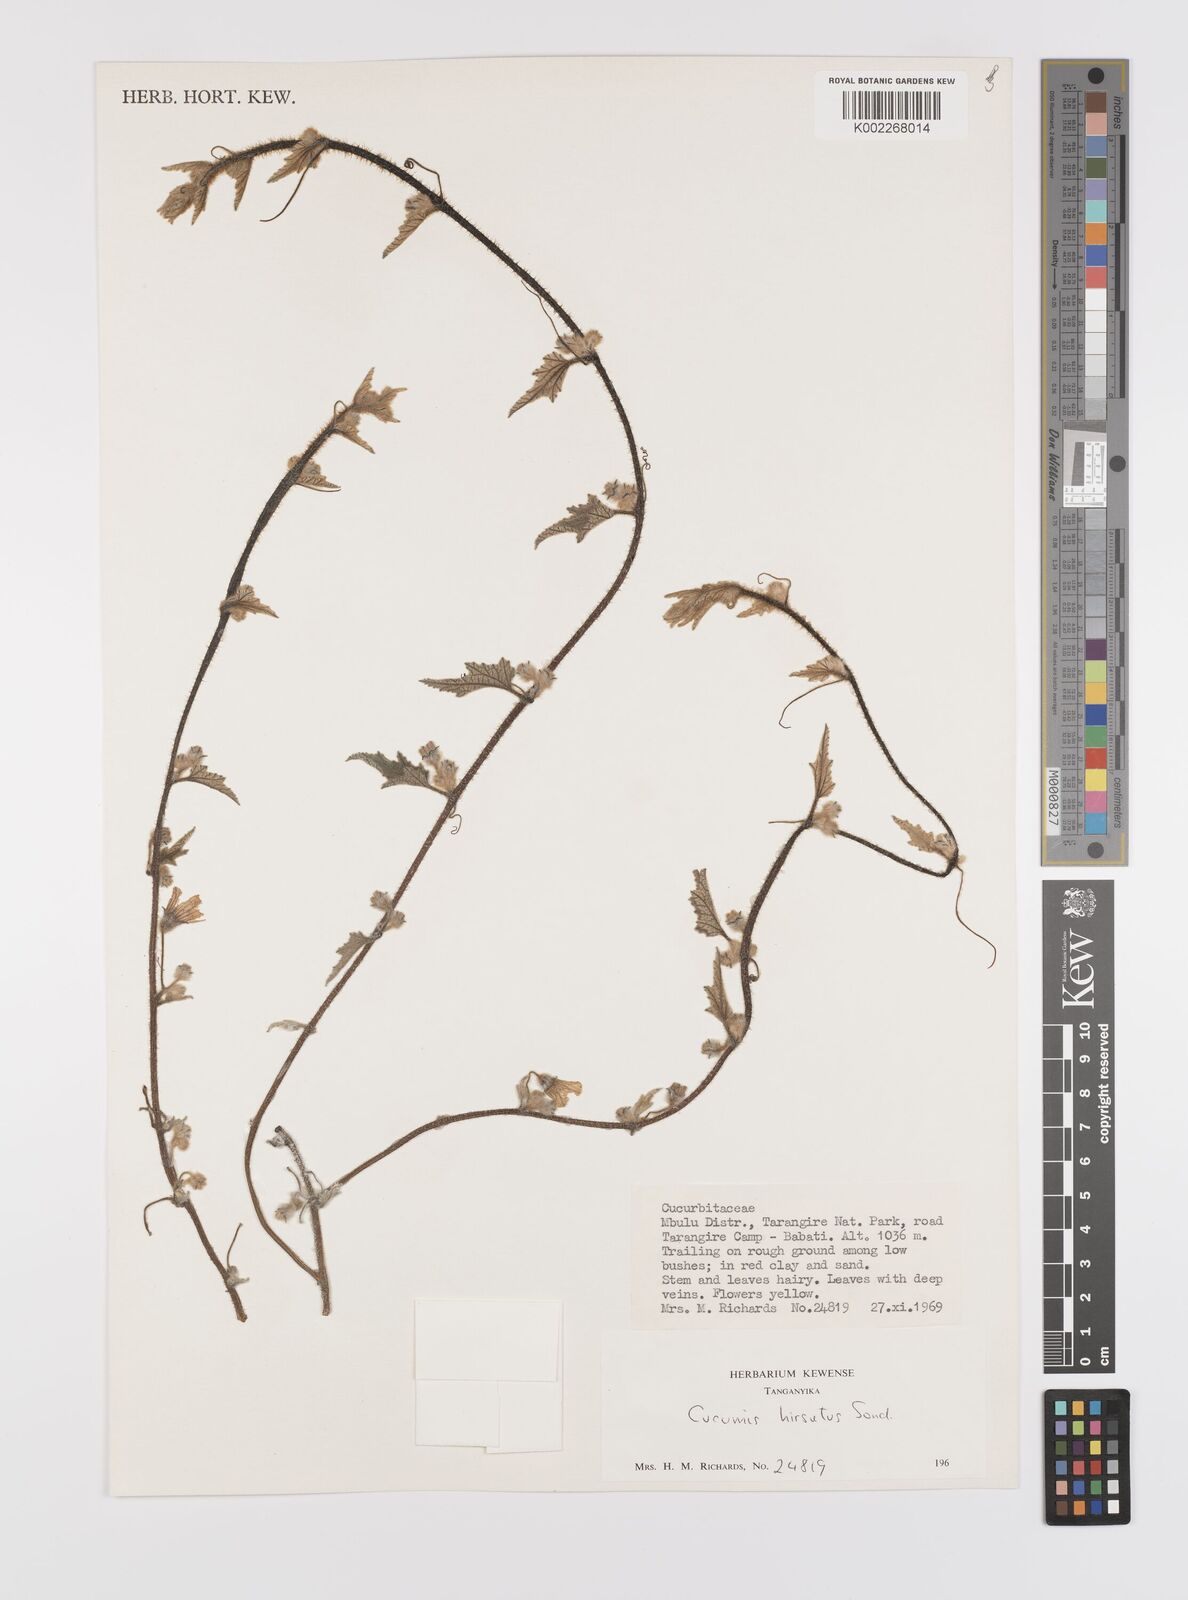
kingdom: Plantae
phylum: Tracheophyta
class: Magnoliopsida
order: Cucurbitales
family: Cucurbitaceae
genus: Cucumis
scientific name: Cucumis hirsutus
